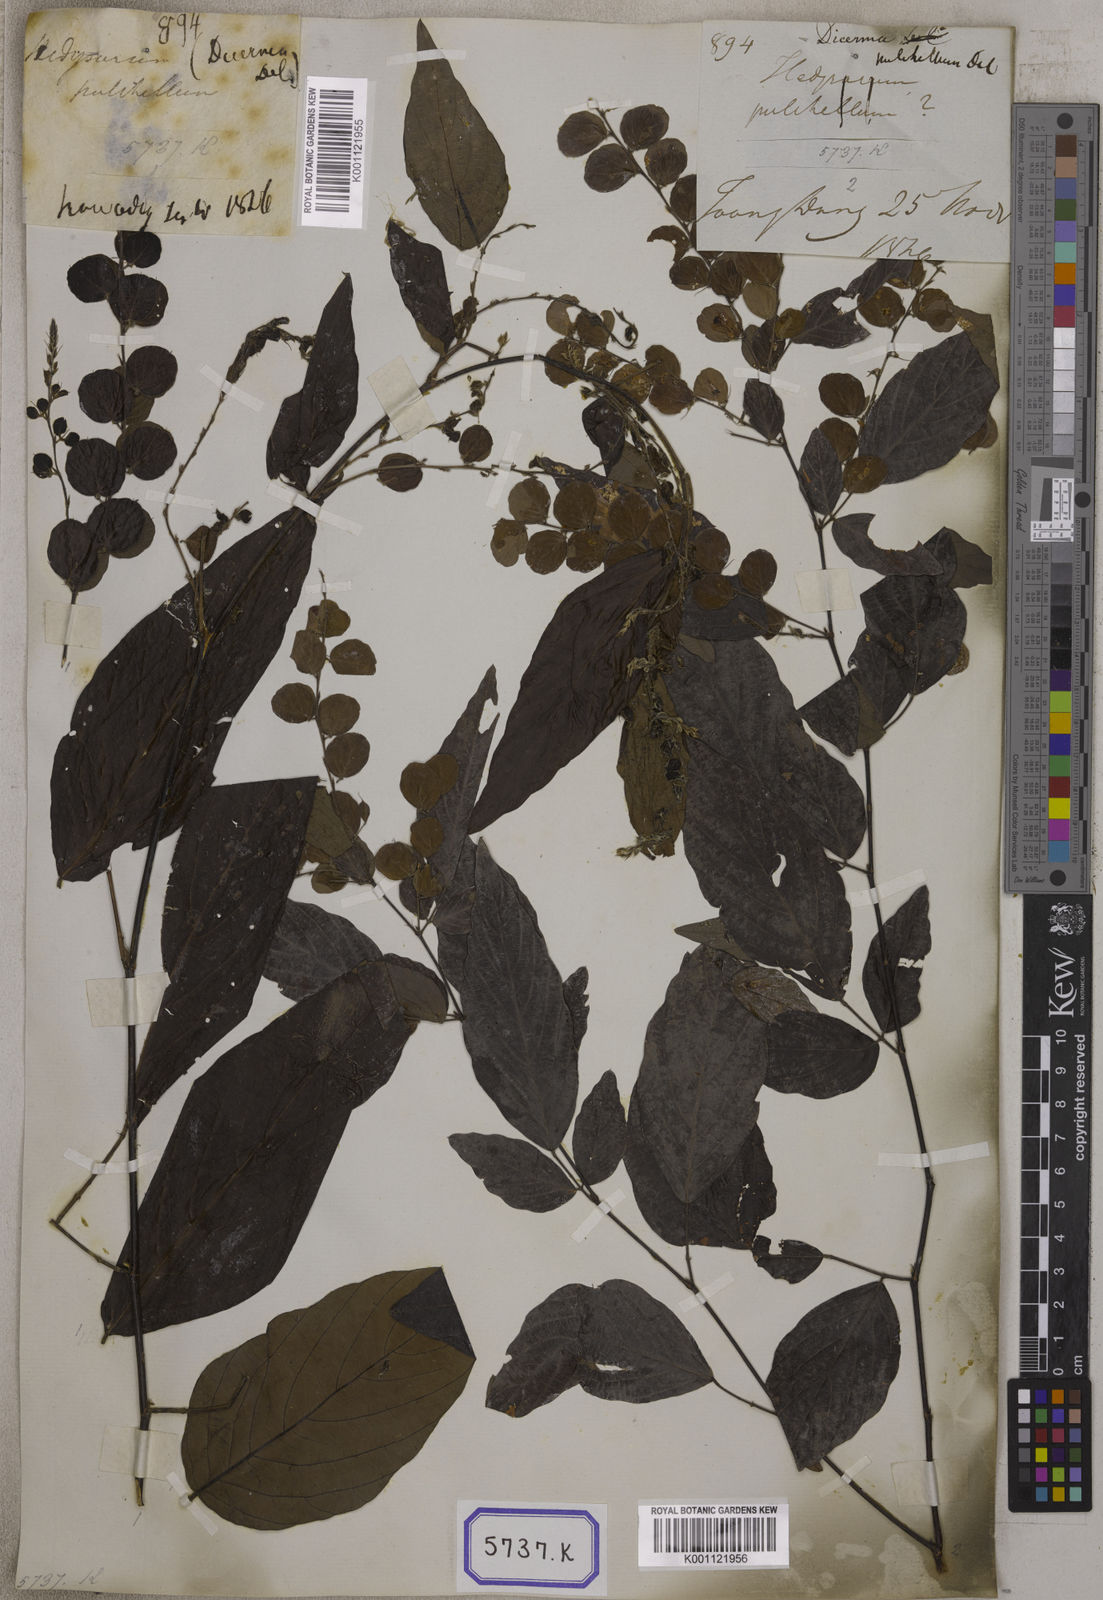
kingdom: Plantae
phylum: Tracheophyta
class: Magnoliopsida
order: Fabales
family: Fabaceae
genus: Phyllodium
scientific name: Phyllodium pulchellum
